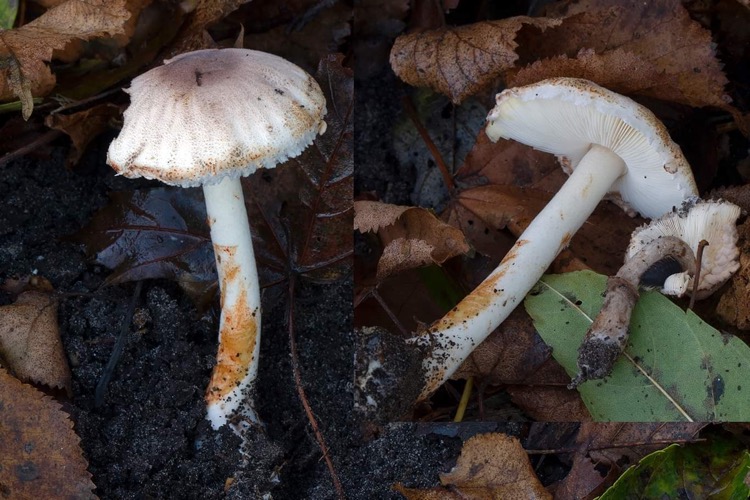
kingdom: Fungi
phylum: Basidiomycota
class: Agaricomycetes
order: Agaricales
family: Agaricaceae
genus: Leucoagaricus
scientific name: Leucoagaricus badhamii
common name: rødmende silkehat
